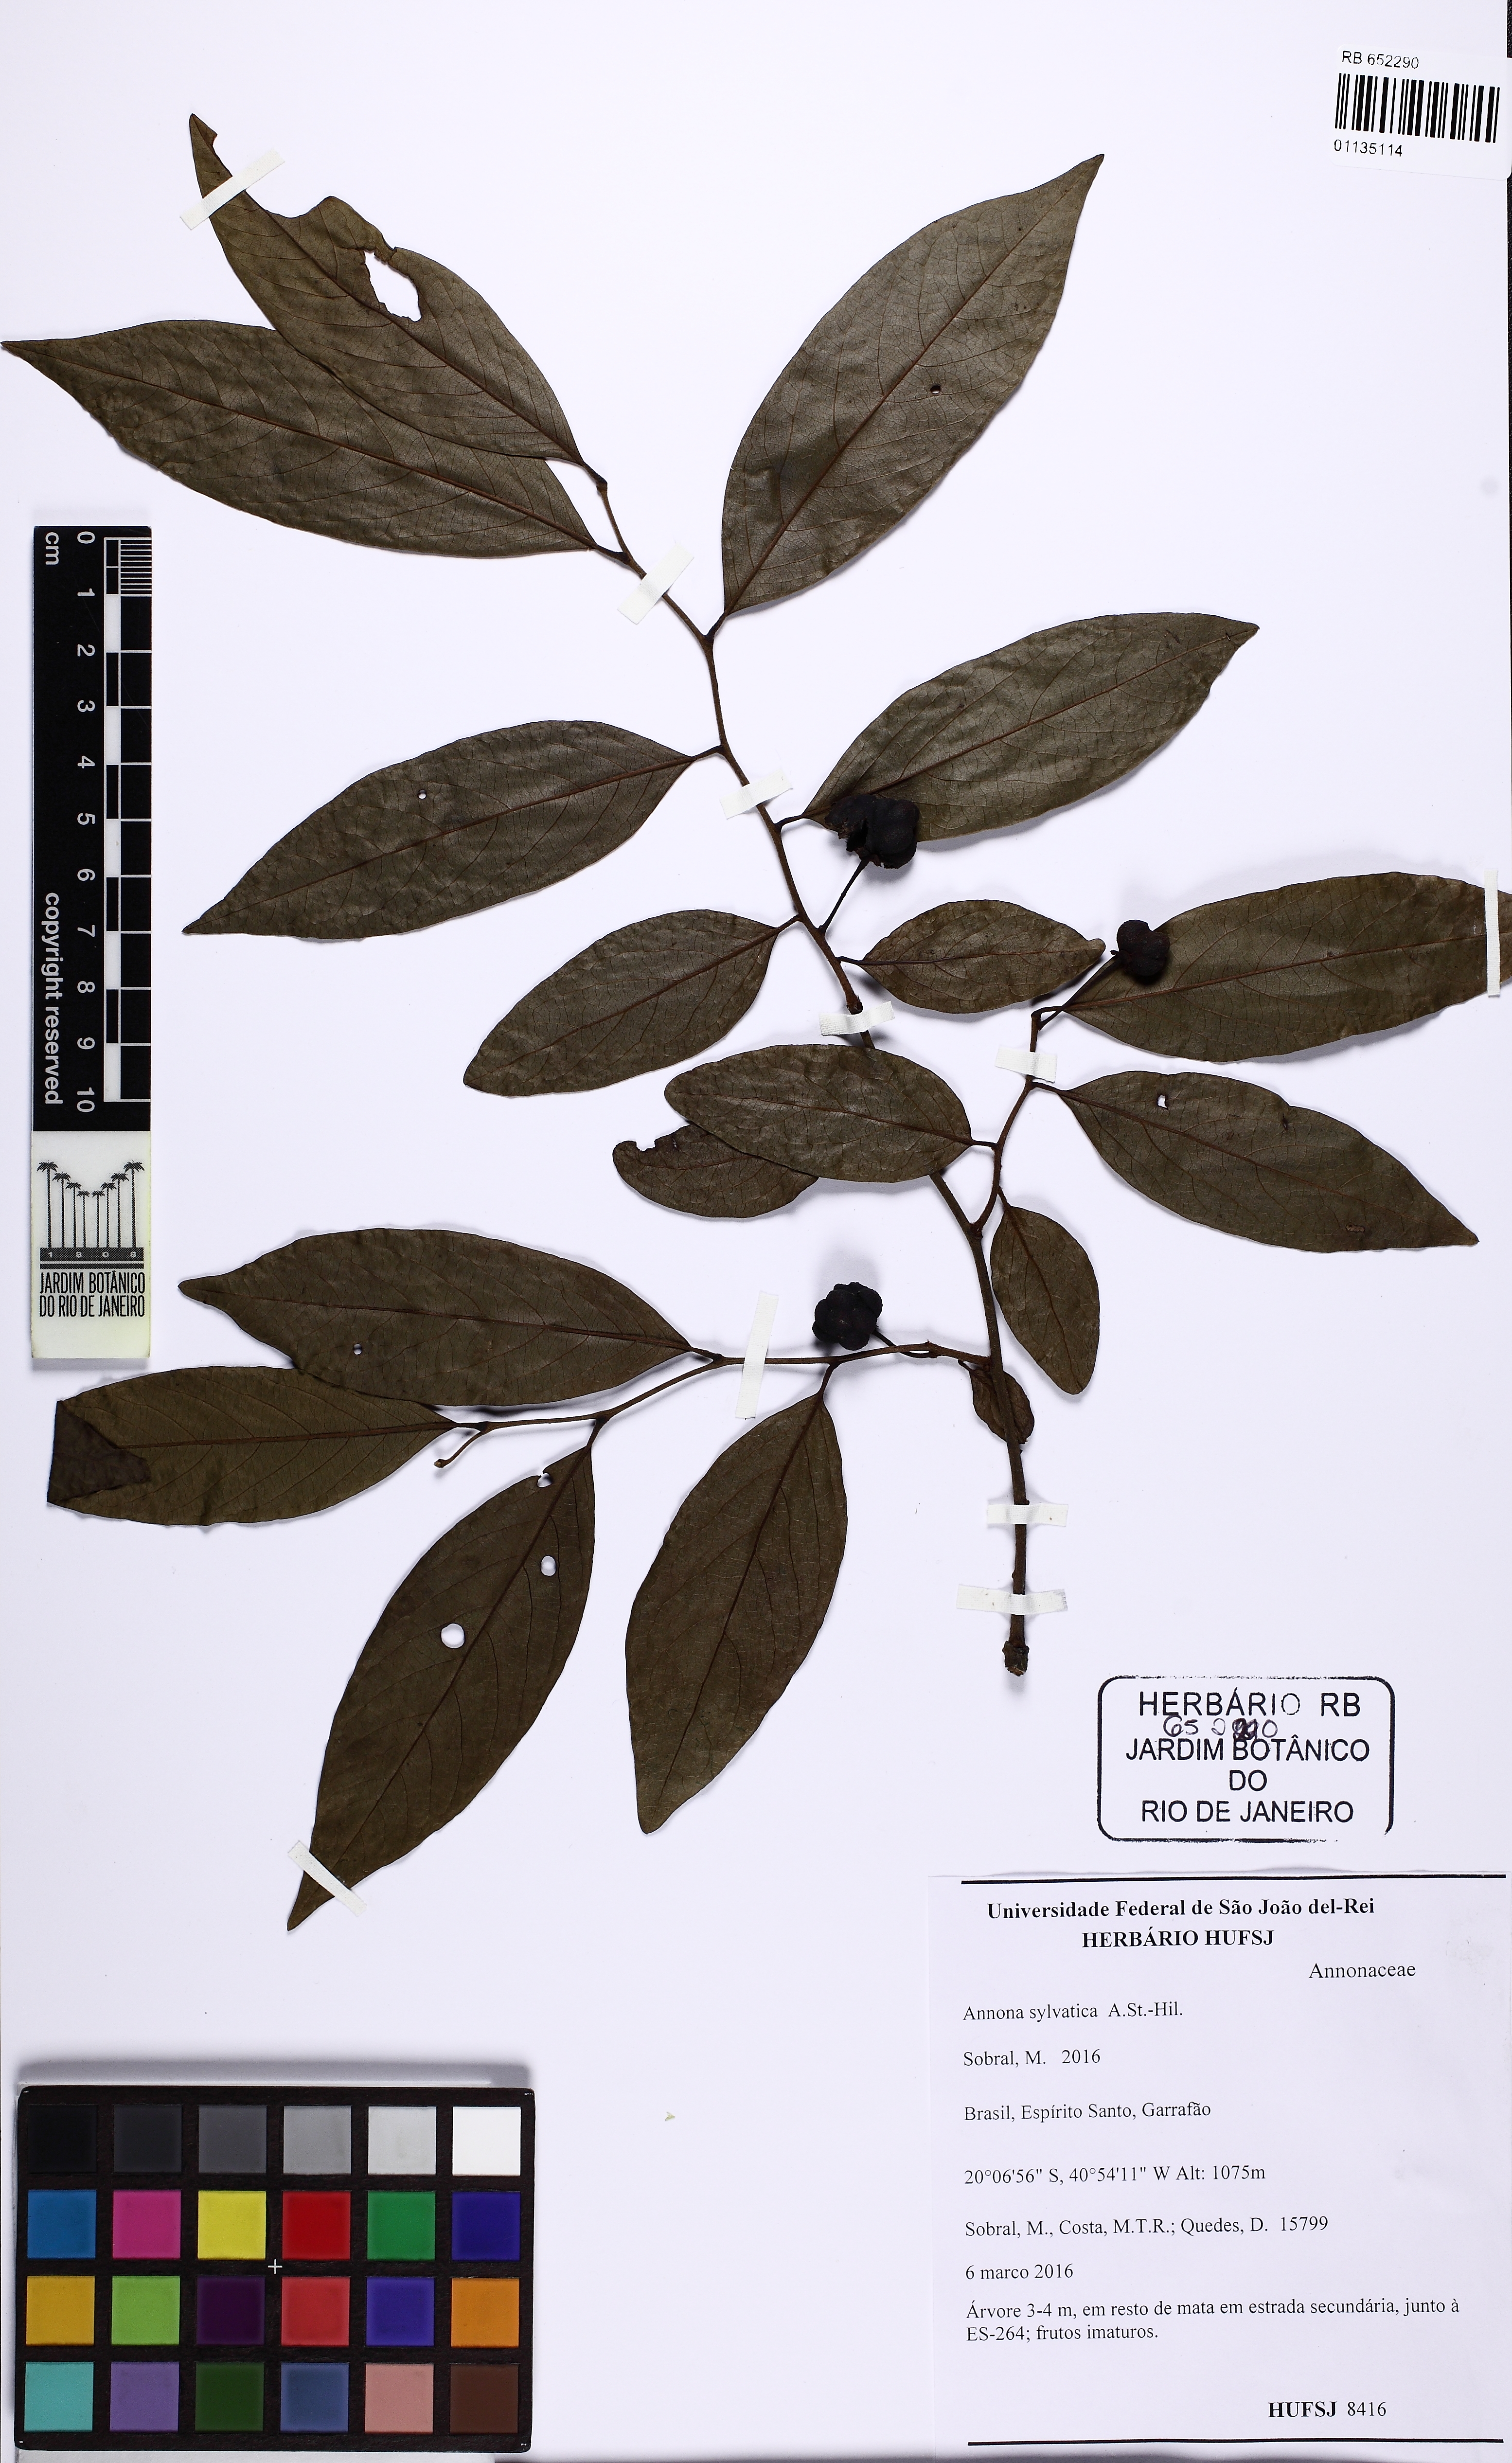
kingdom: Plantae
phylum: Tracheophyta
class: Magnoliopsida
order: Magnoliales
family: Annonaceae
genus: Annona
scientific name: Annona sylvatica
